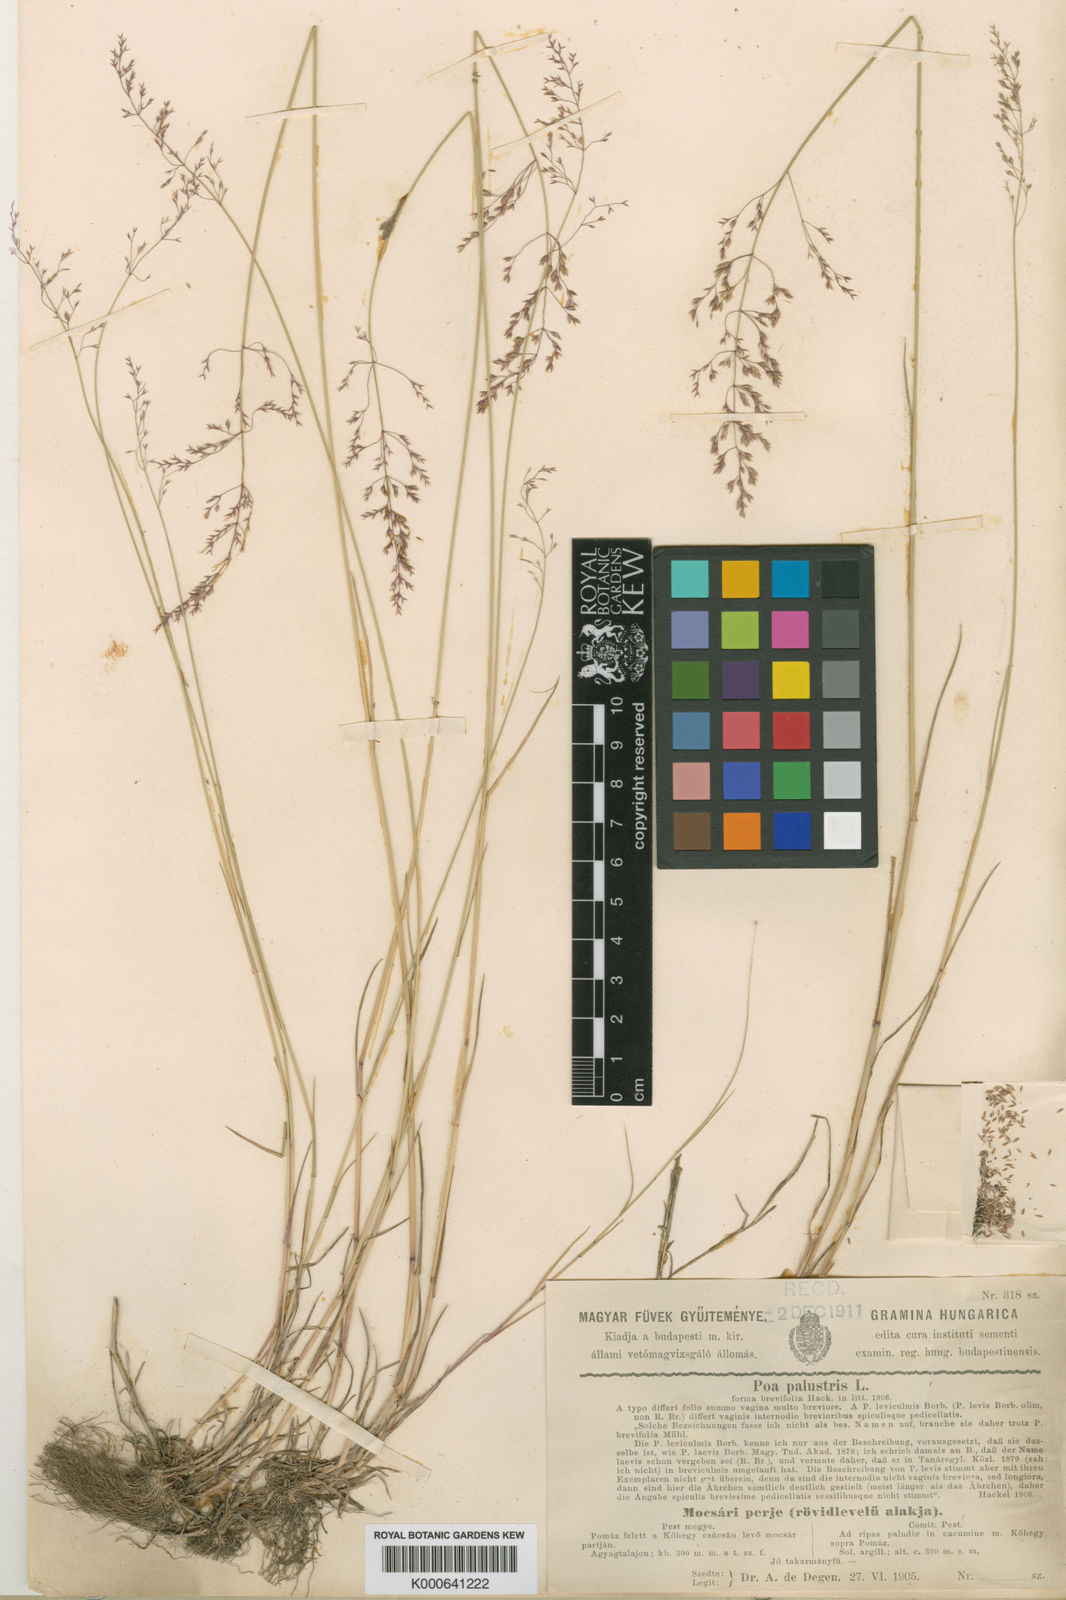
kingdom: Plantae
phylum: Tracheophyta
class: Liliopsida
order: Poales
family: Poaceae
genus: Poa
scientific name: Poa palustris
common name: Swamp meadow-grass
